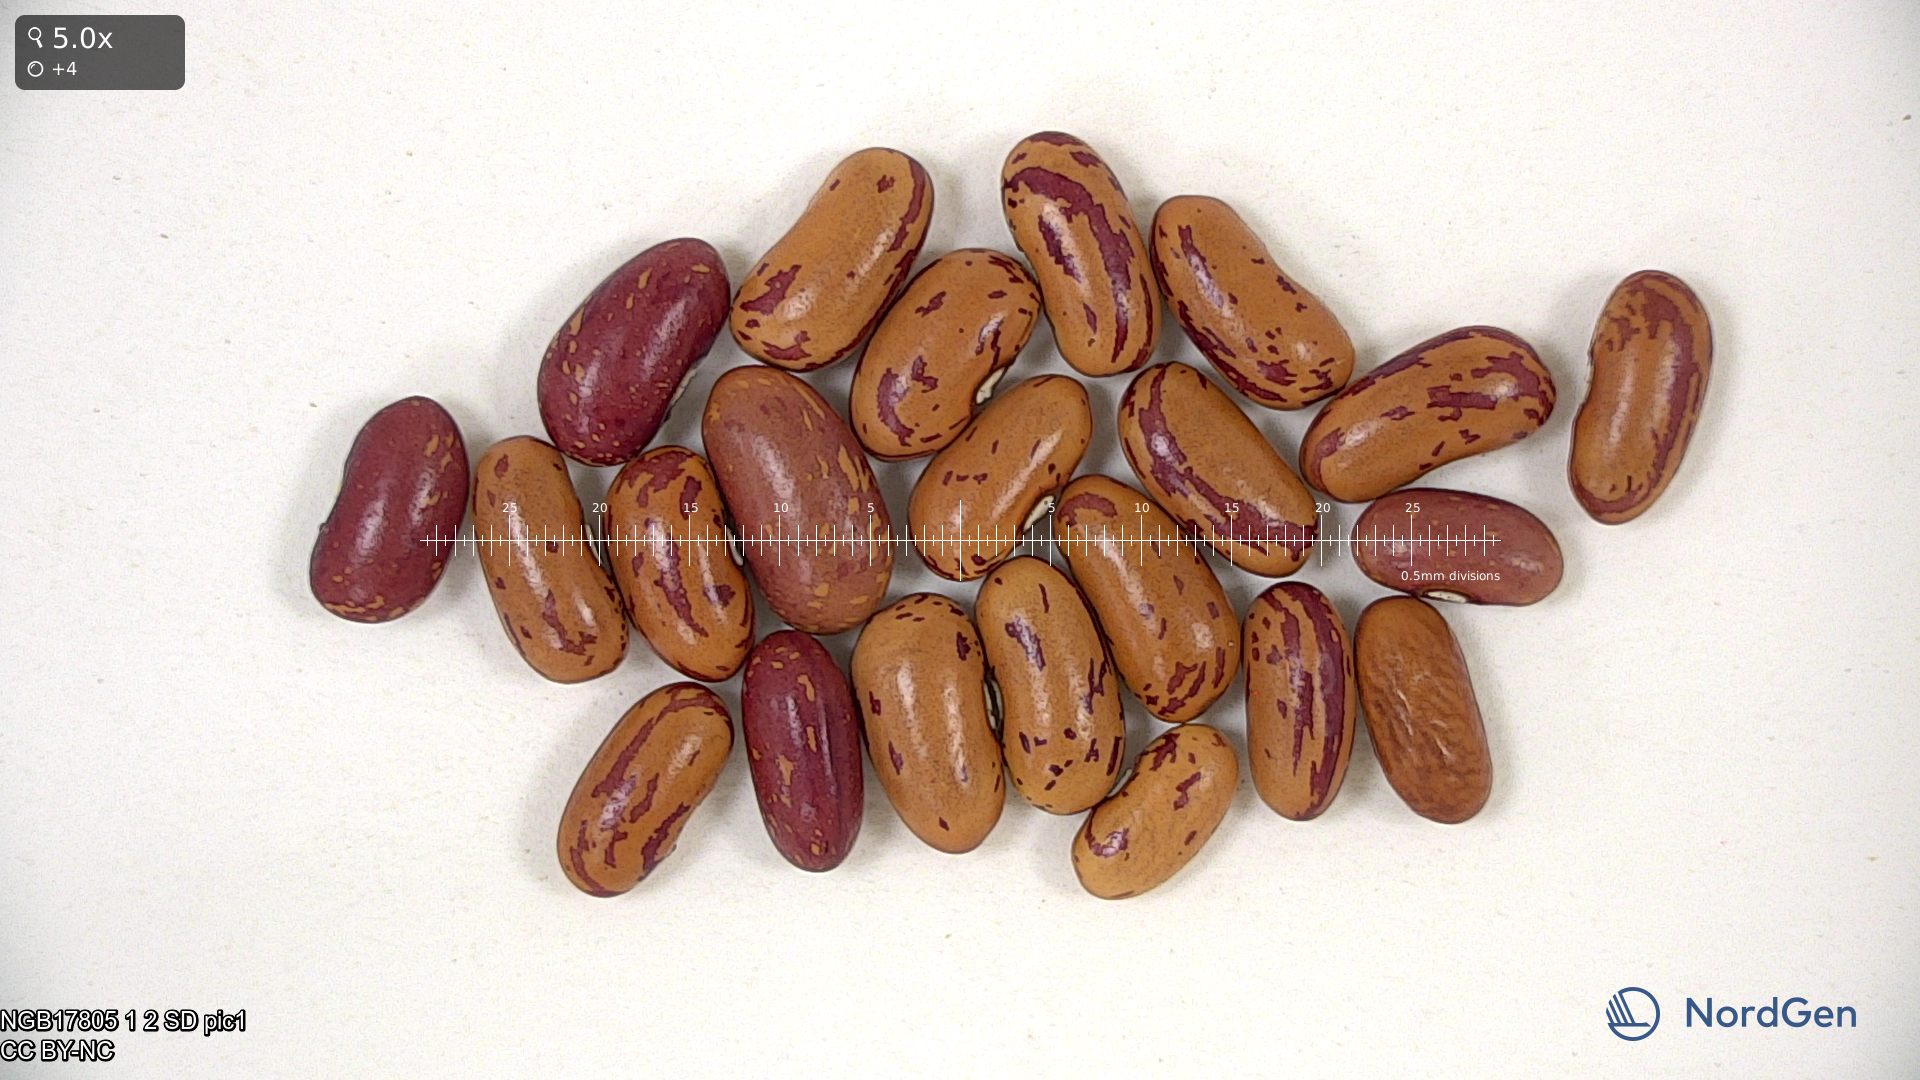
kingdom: Plantae
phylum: Tracheophyta
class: Magnoliopsida
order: Fabales
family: Fabaceae
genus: Phaseolus
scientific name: Phaseolus vulgaris
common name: Bean
